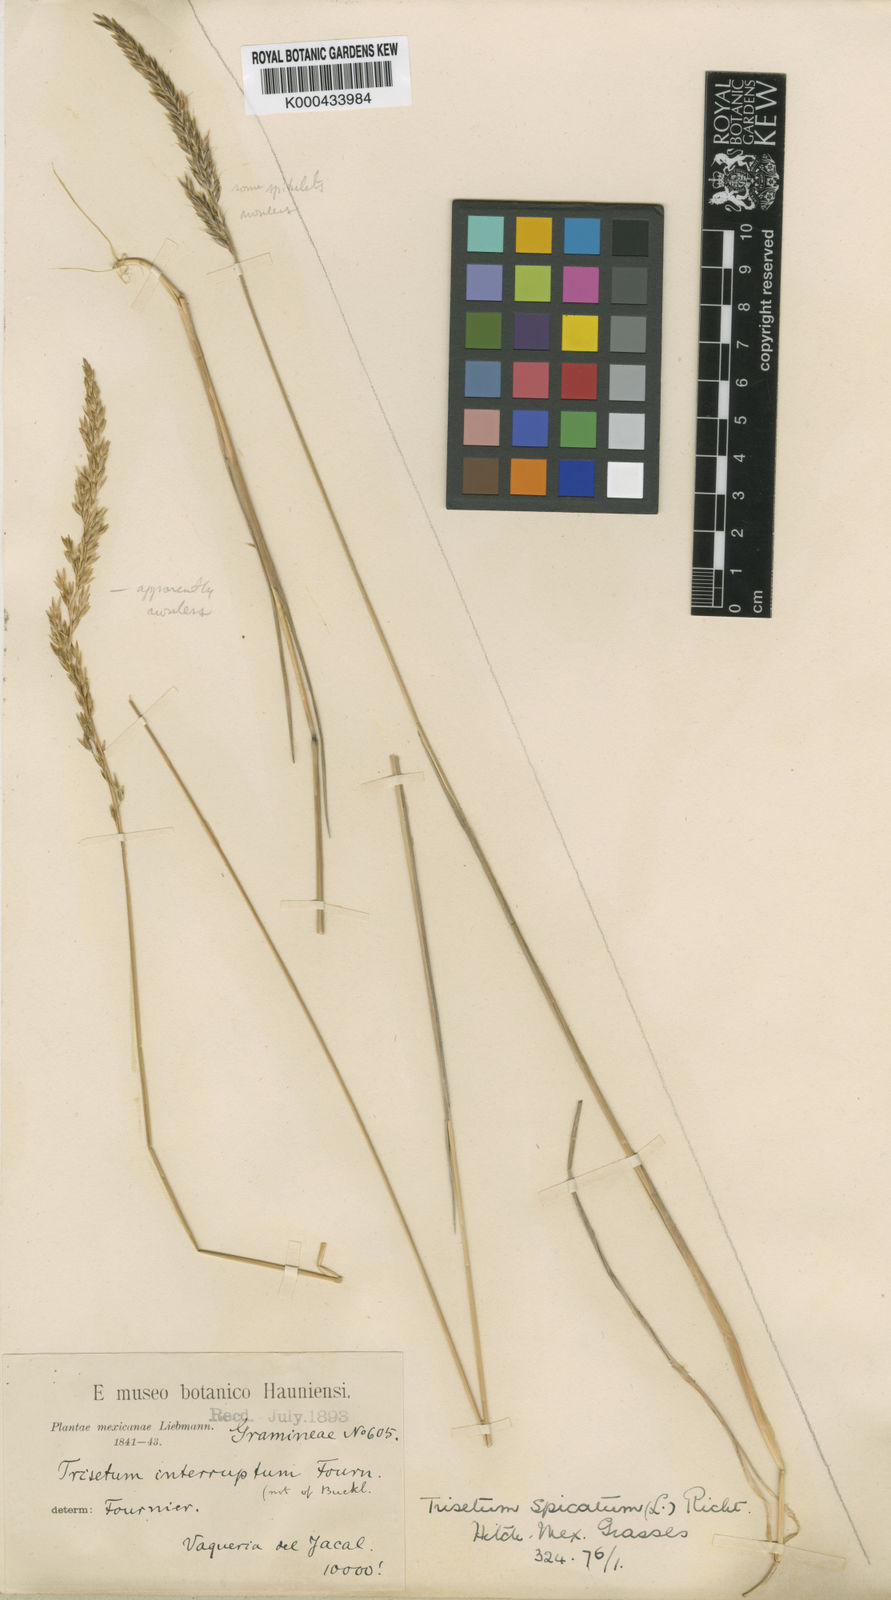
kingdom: Plantae
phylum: Tracheophyta
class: Liliopsida
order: Poales
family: Poaceae
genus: Koeleria
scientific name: Koeleria spicata
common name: Mountain trisetum
